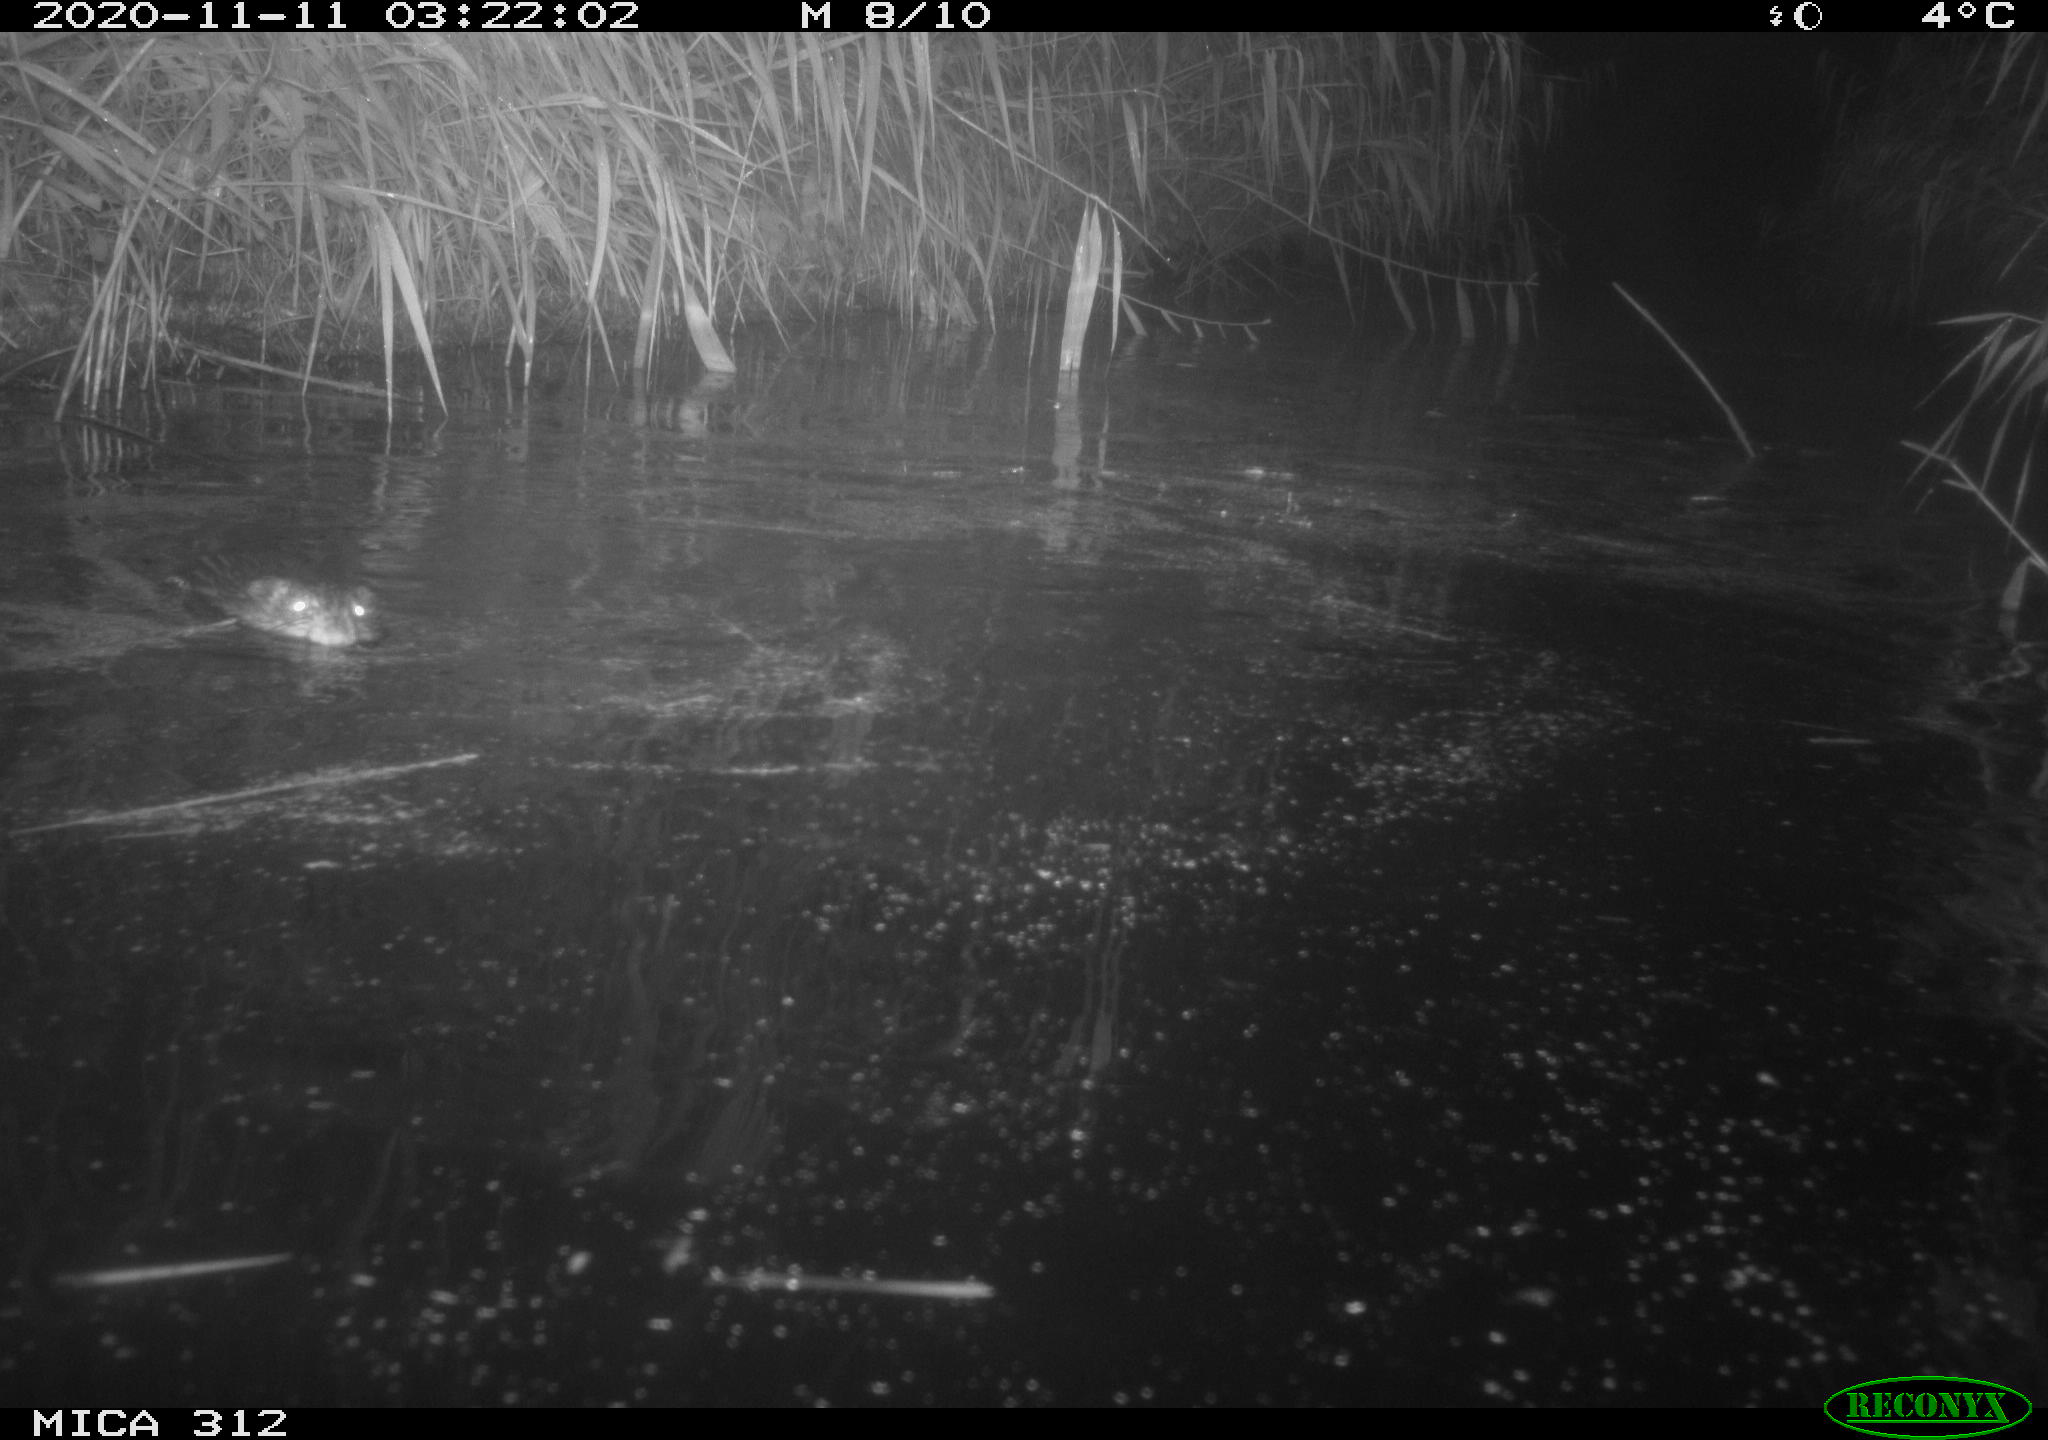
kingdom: Animalia
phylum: Chordata
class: Mammalia
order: Rodentia
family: Cricetidae
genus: Ondatra
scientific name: Ondatra zibethicus
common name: Muskrat
